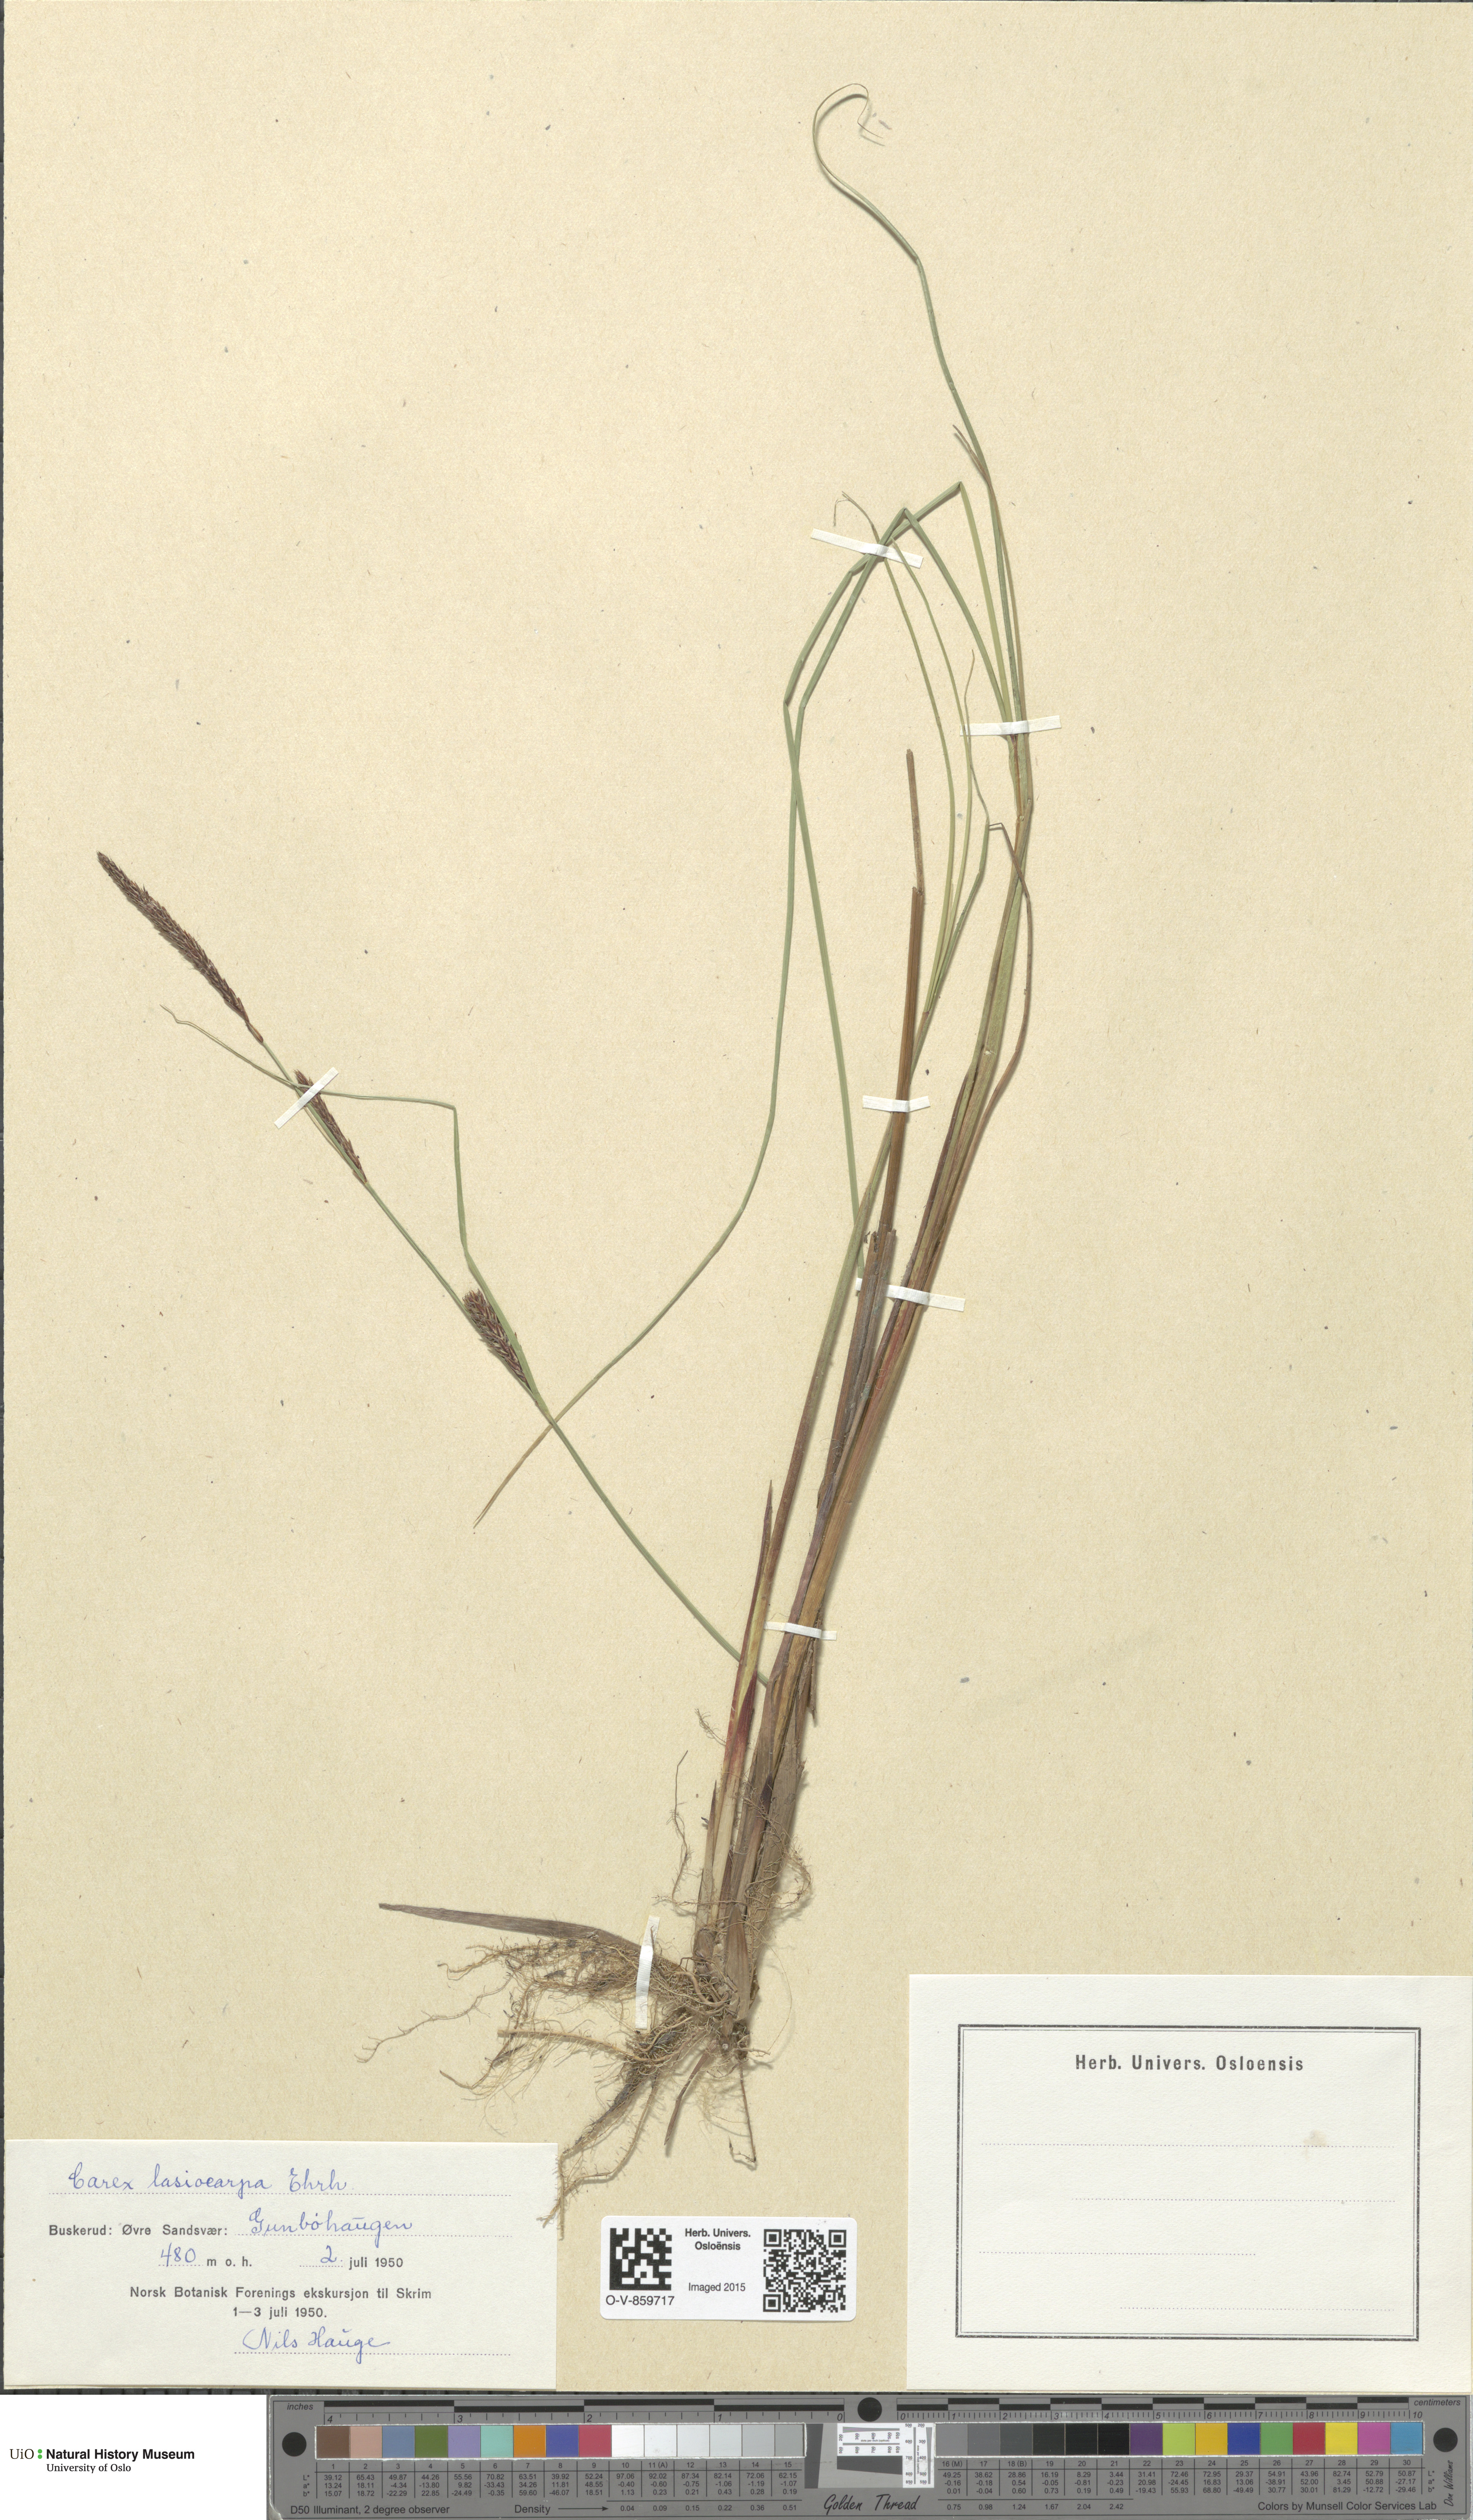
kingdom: Plantae
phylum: Tracheophyta
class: Liliopsida
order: Poales
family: Cyperaceae
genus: Carex
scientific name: Carex lasiocarpa
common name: Slender sedge
